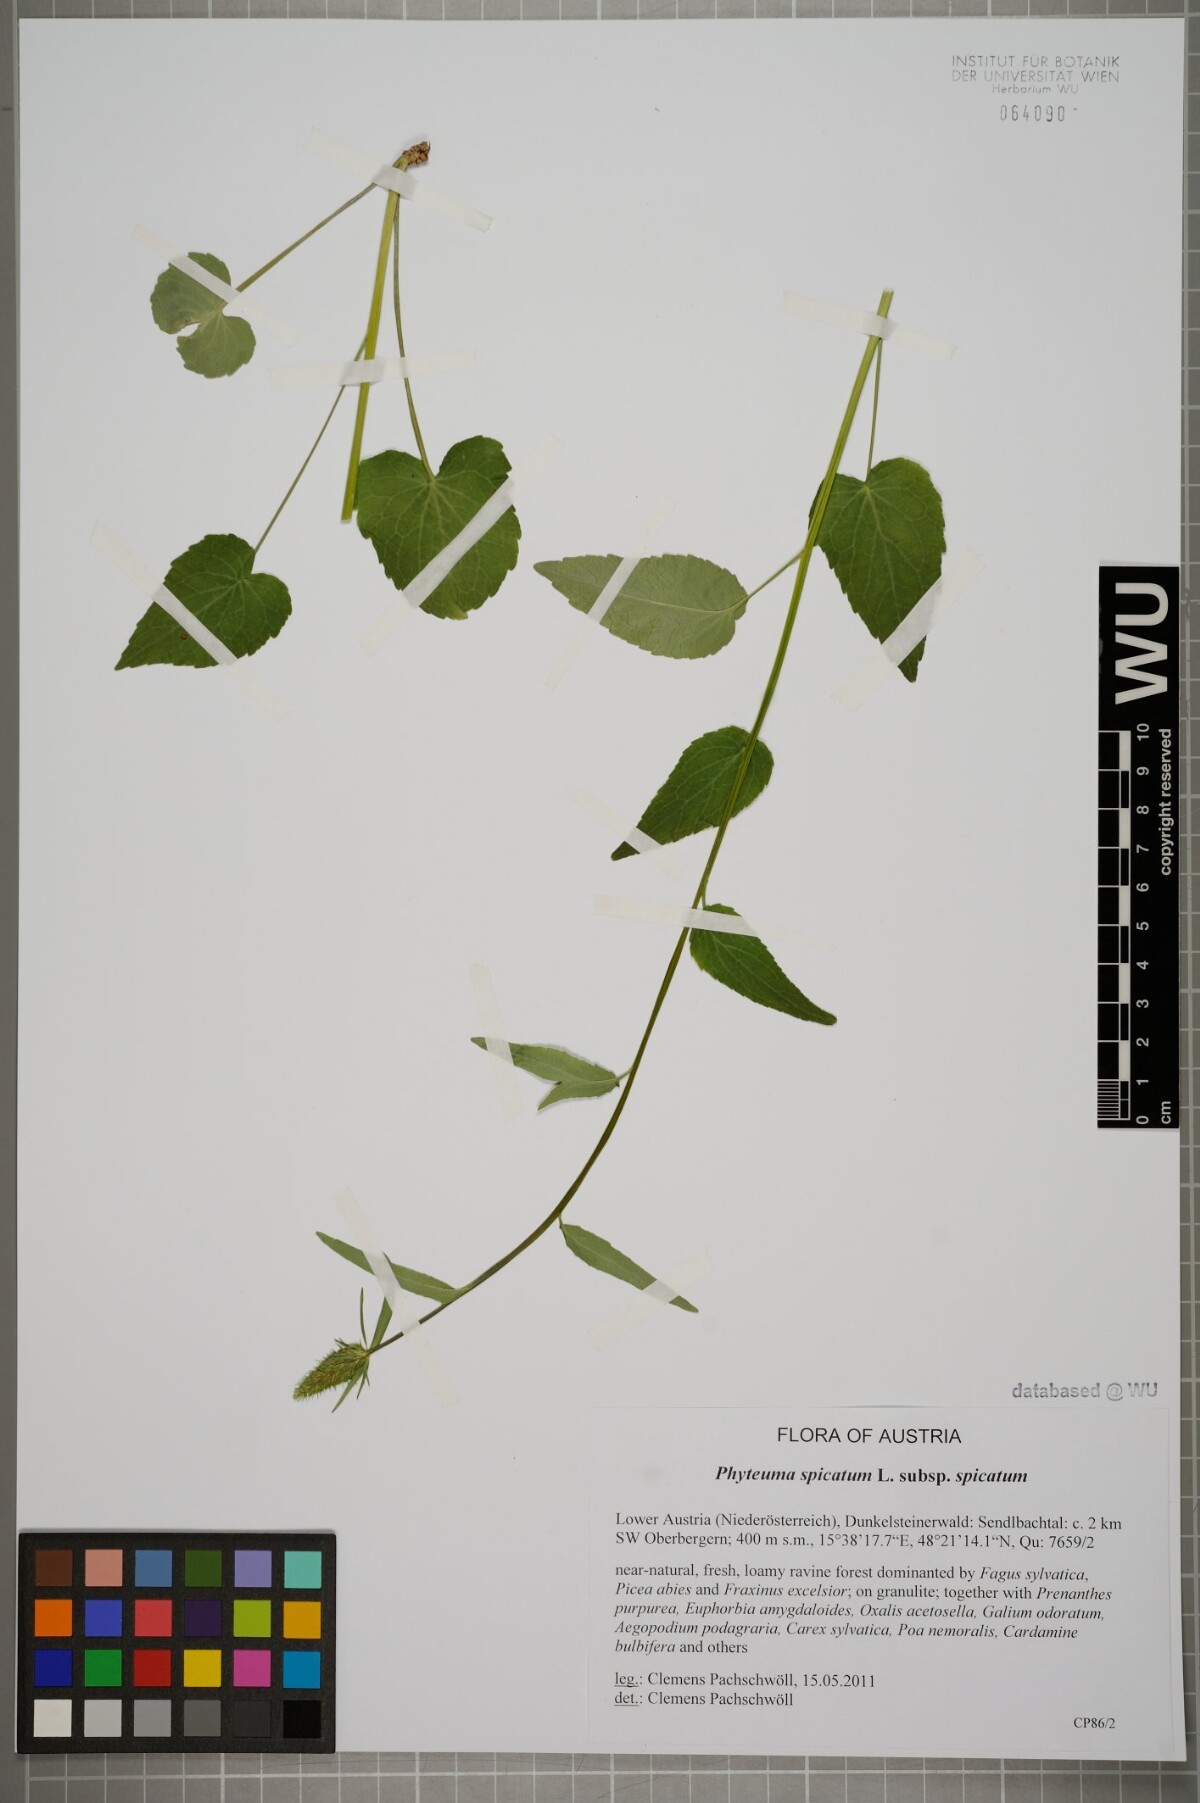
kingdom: Plantae
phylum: Tracheophyta
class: Magnoliopsida
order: Asterales
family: Campanulaceae
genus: Phyteuma
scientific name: Phyteuma spicatum
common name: Spiked rampion
